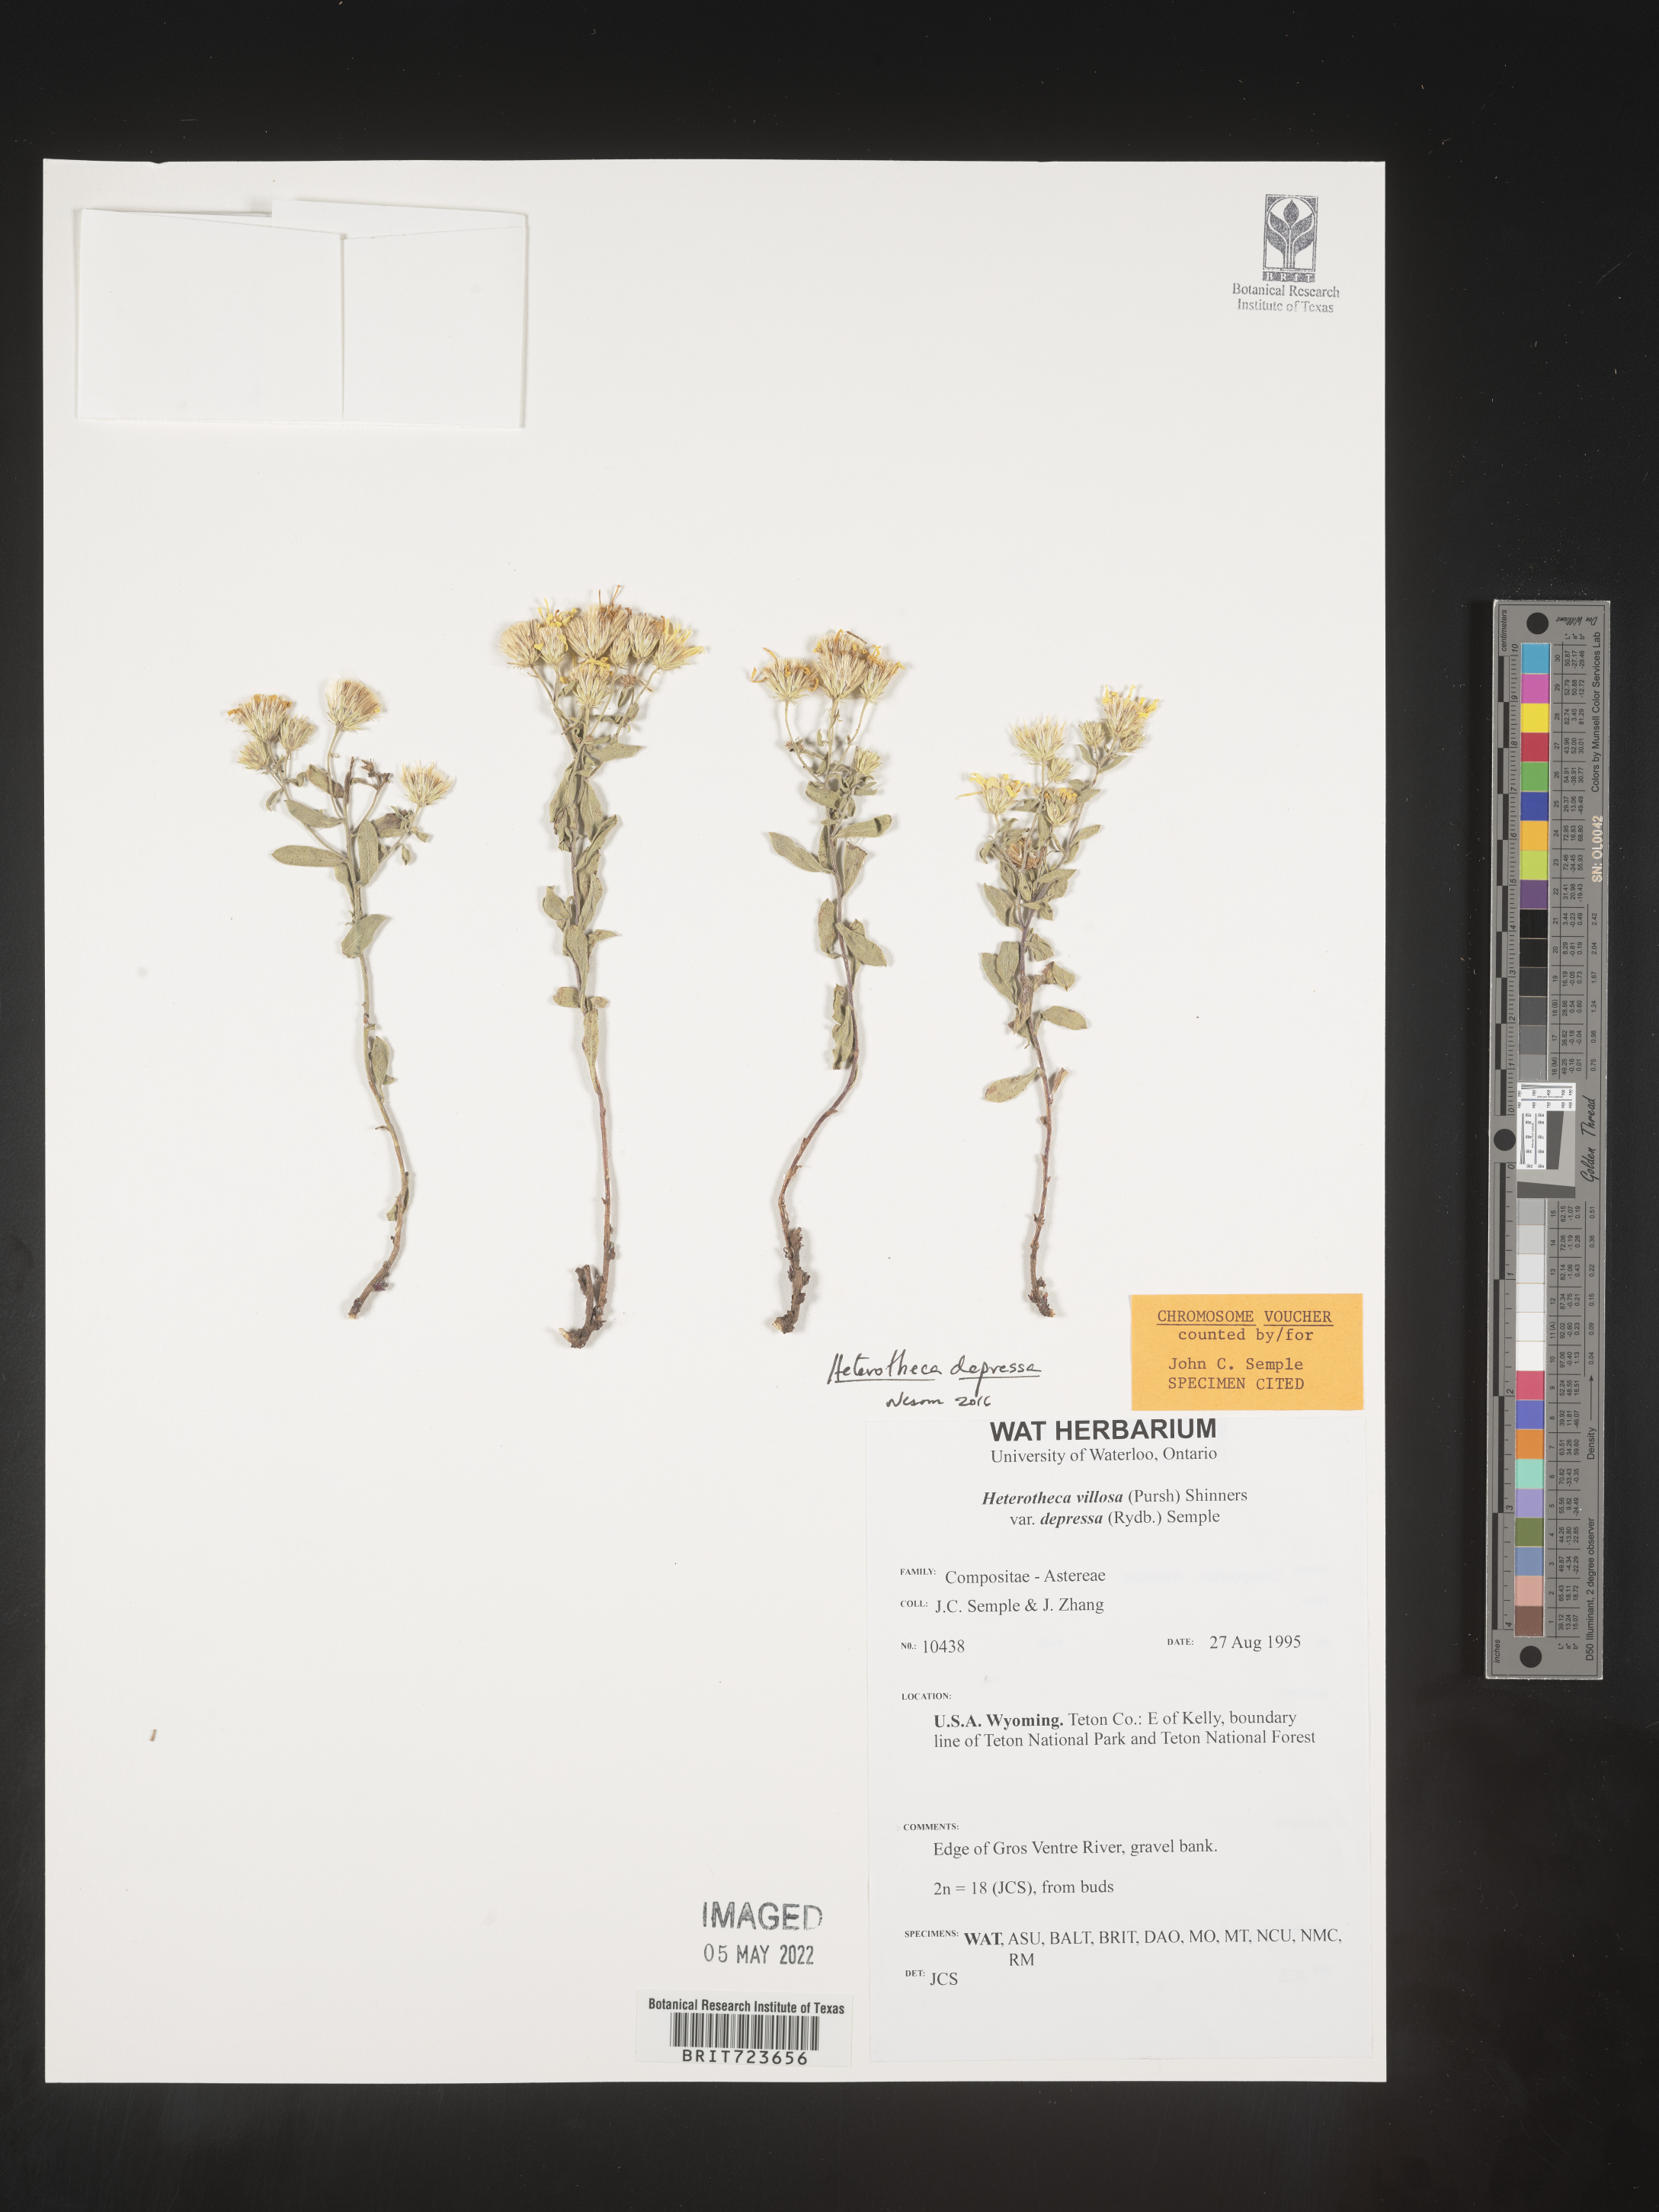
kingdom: Plantae
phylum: Tracheophyta
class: Magnoliopsida
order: Asterales
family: Asteraceae
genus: Heterotheca
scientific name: Heterotheca depressa
